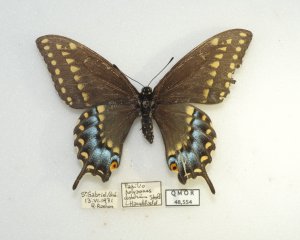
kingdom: Animalia
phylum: Arthropoda
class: Insecta
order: Lepidoptera
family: Papilionidae
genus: Papilio
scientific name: Papilio polyxenes
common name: Black Swallowtail
